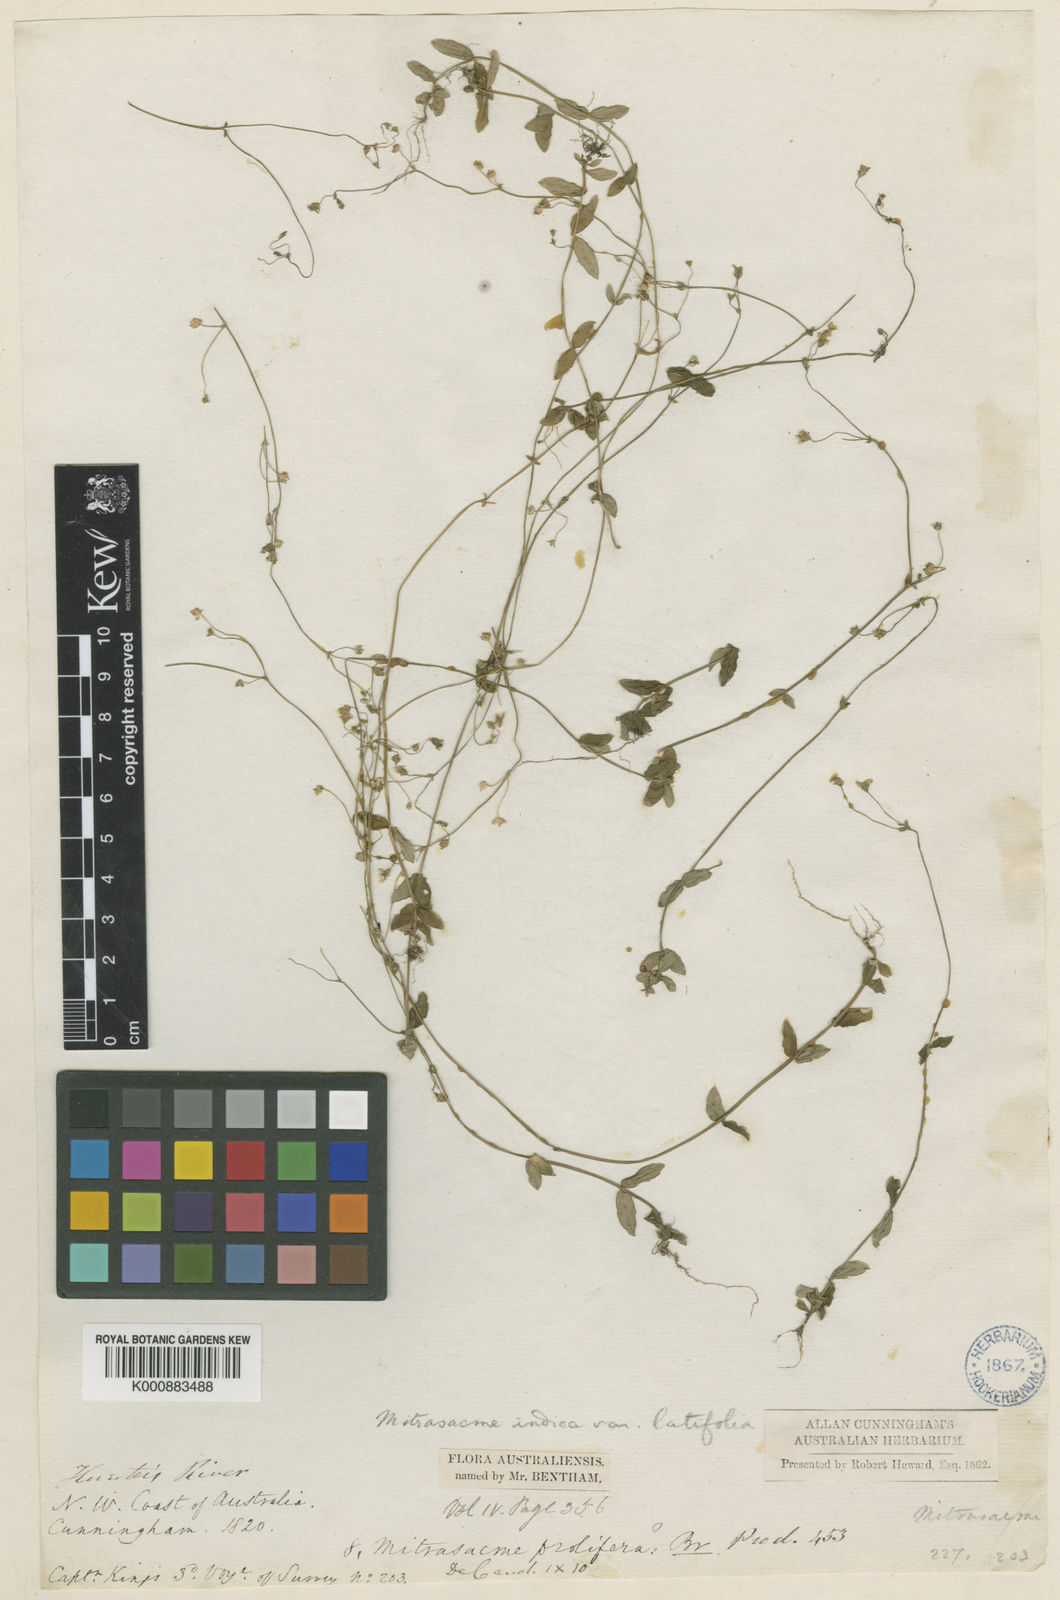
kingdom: Plantae
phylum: Tracheophyta
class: Magnoliopsida
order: Gentianales
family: Loganiaceae
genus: Mitrasacme
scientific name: Mitrasacme nummularia
